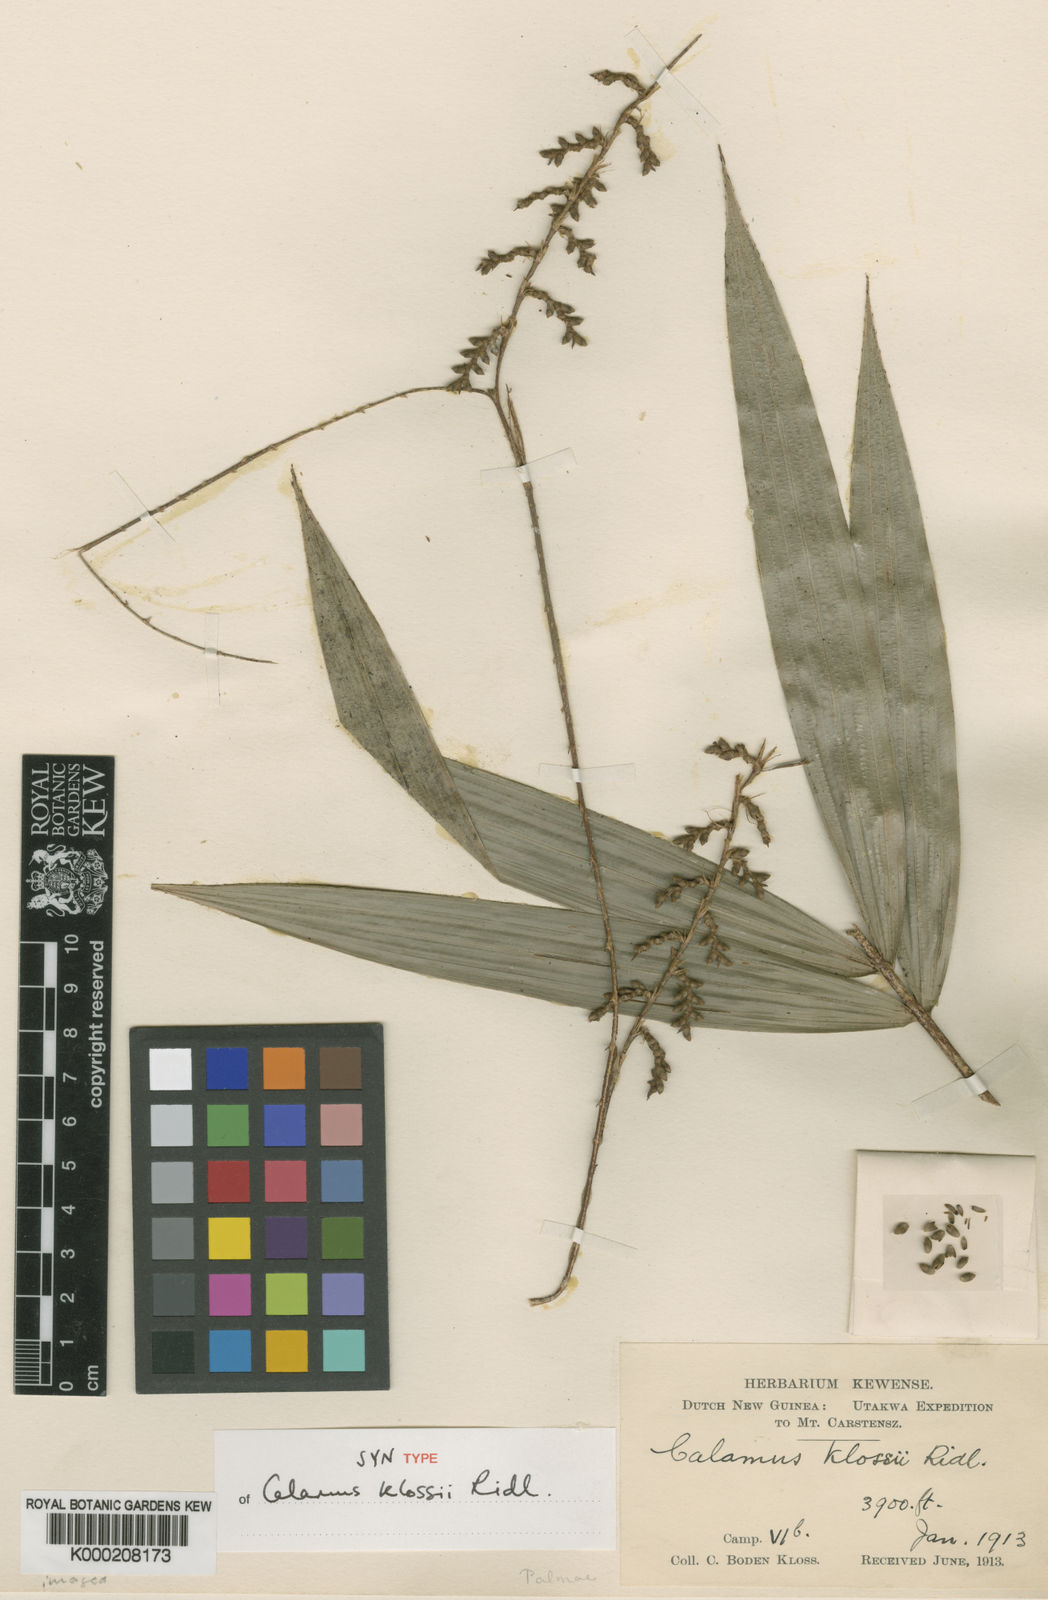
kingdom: Plantae
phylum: Tracheophyta
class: Liliopsida
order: Arecales
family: Arecaceae
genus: Calamus
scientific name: Calamus klossii
